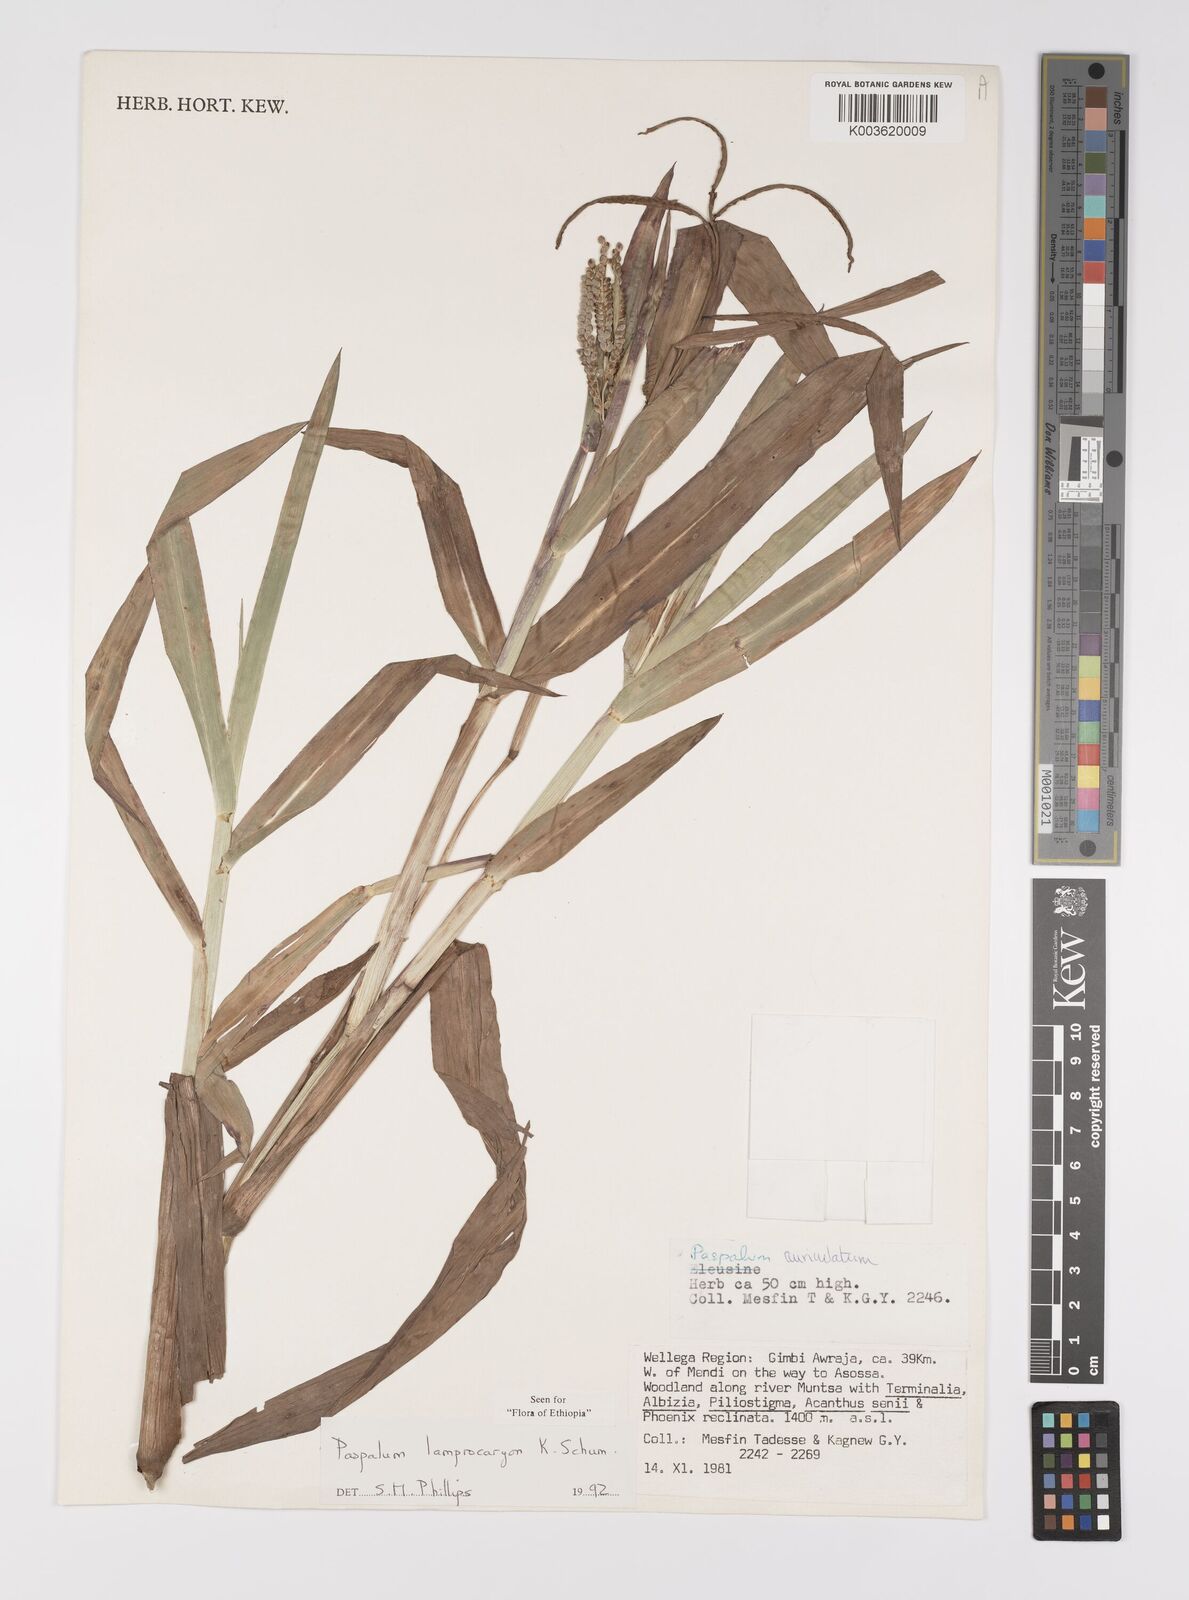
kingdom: Plantae
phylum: Tracheophyta
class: Liliopsida
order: Poales
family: Poaceae
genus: Paspalum
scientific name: Paspalum lamprocaryon
